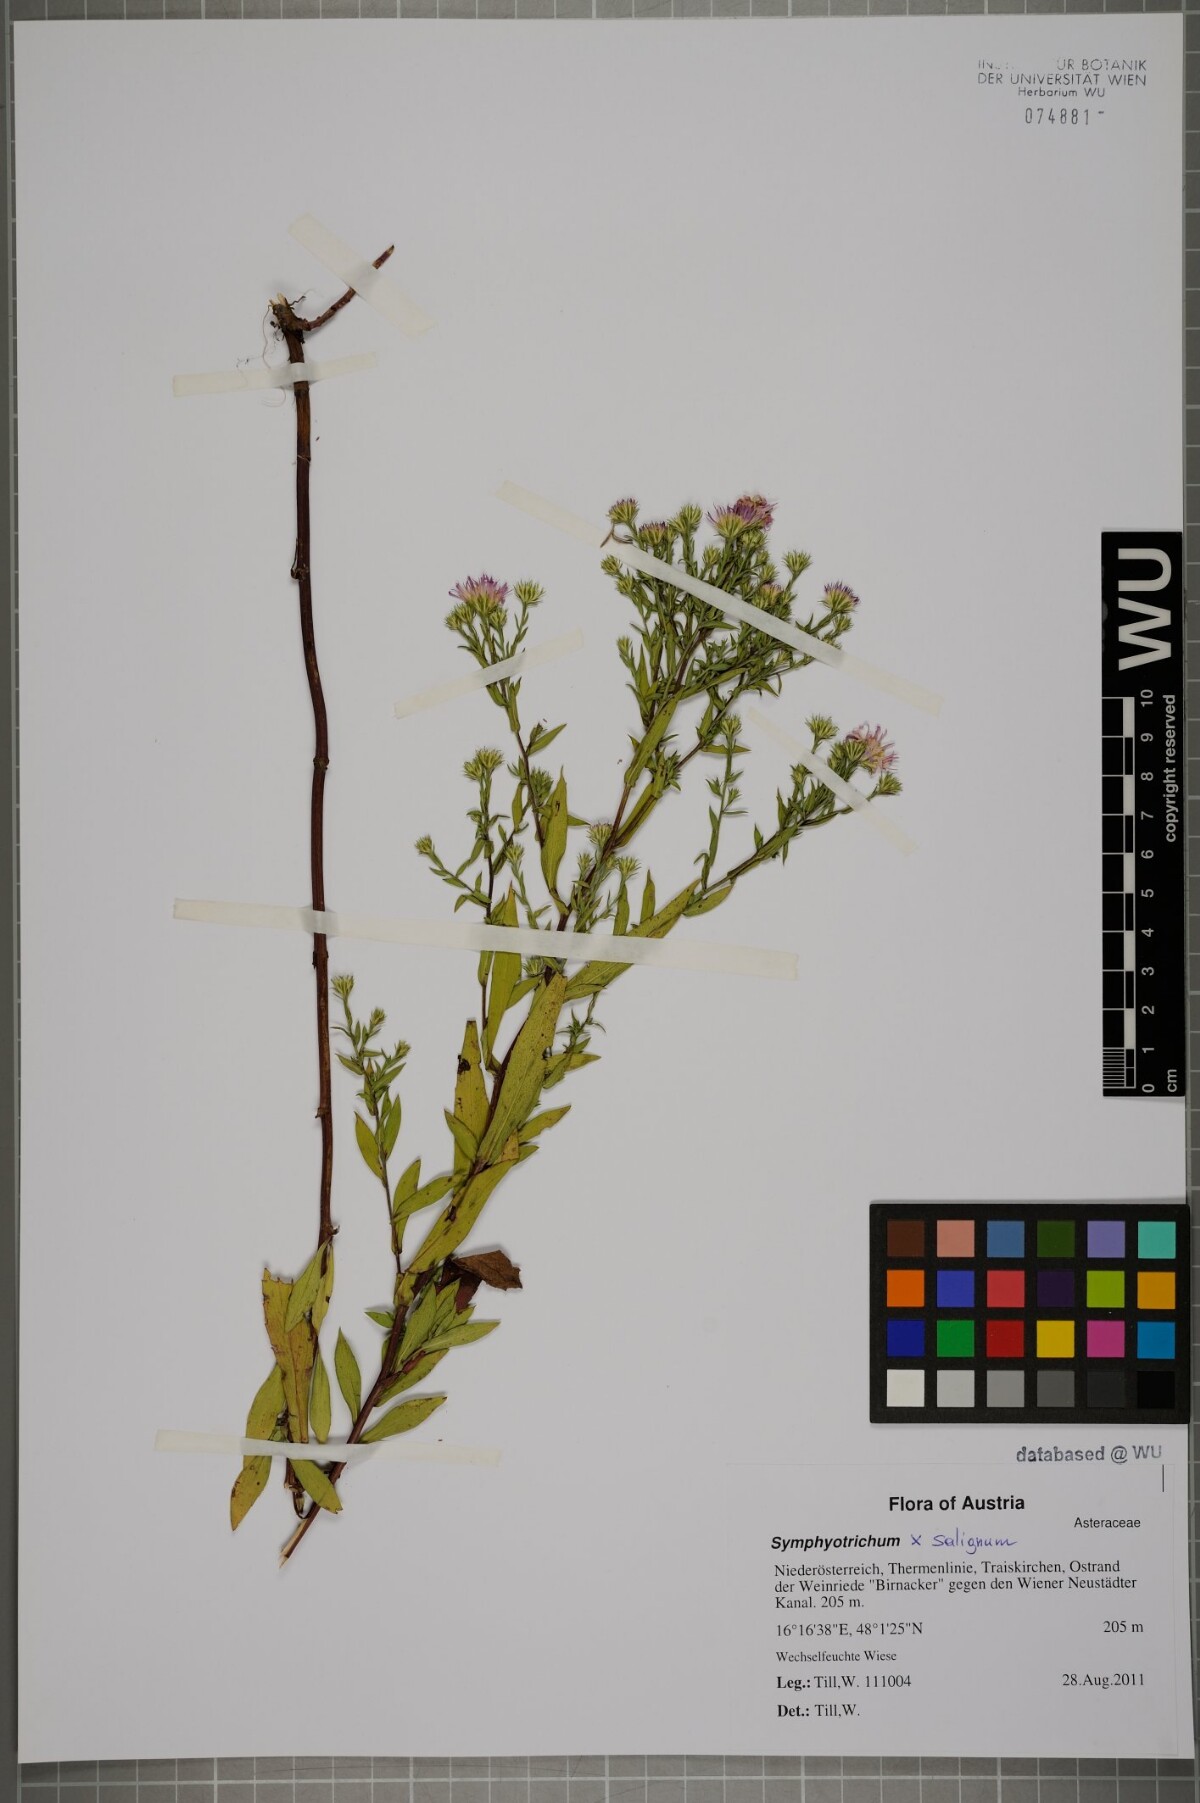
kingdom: Plantae
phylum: Tracheophyta
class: Magnoliopsida
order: Asterales
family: Asteraceae
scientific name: Asteraceae
